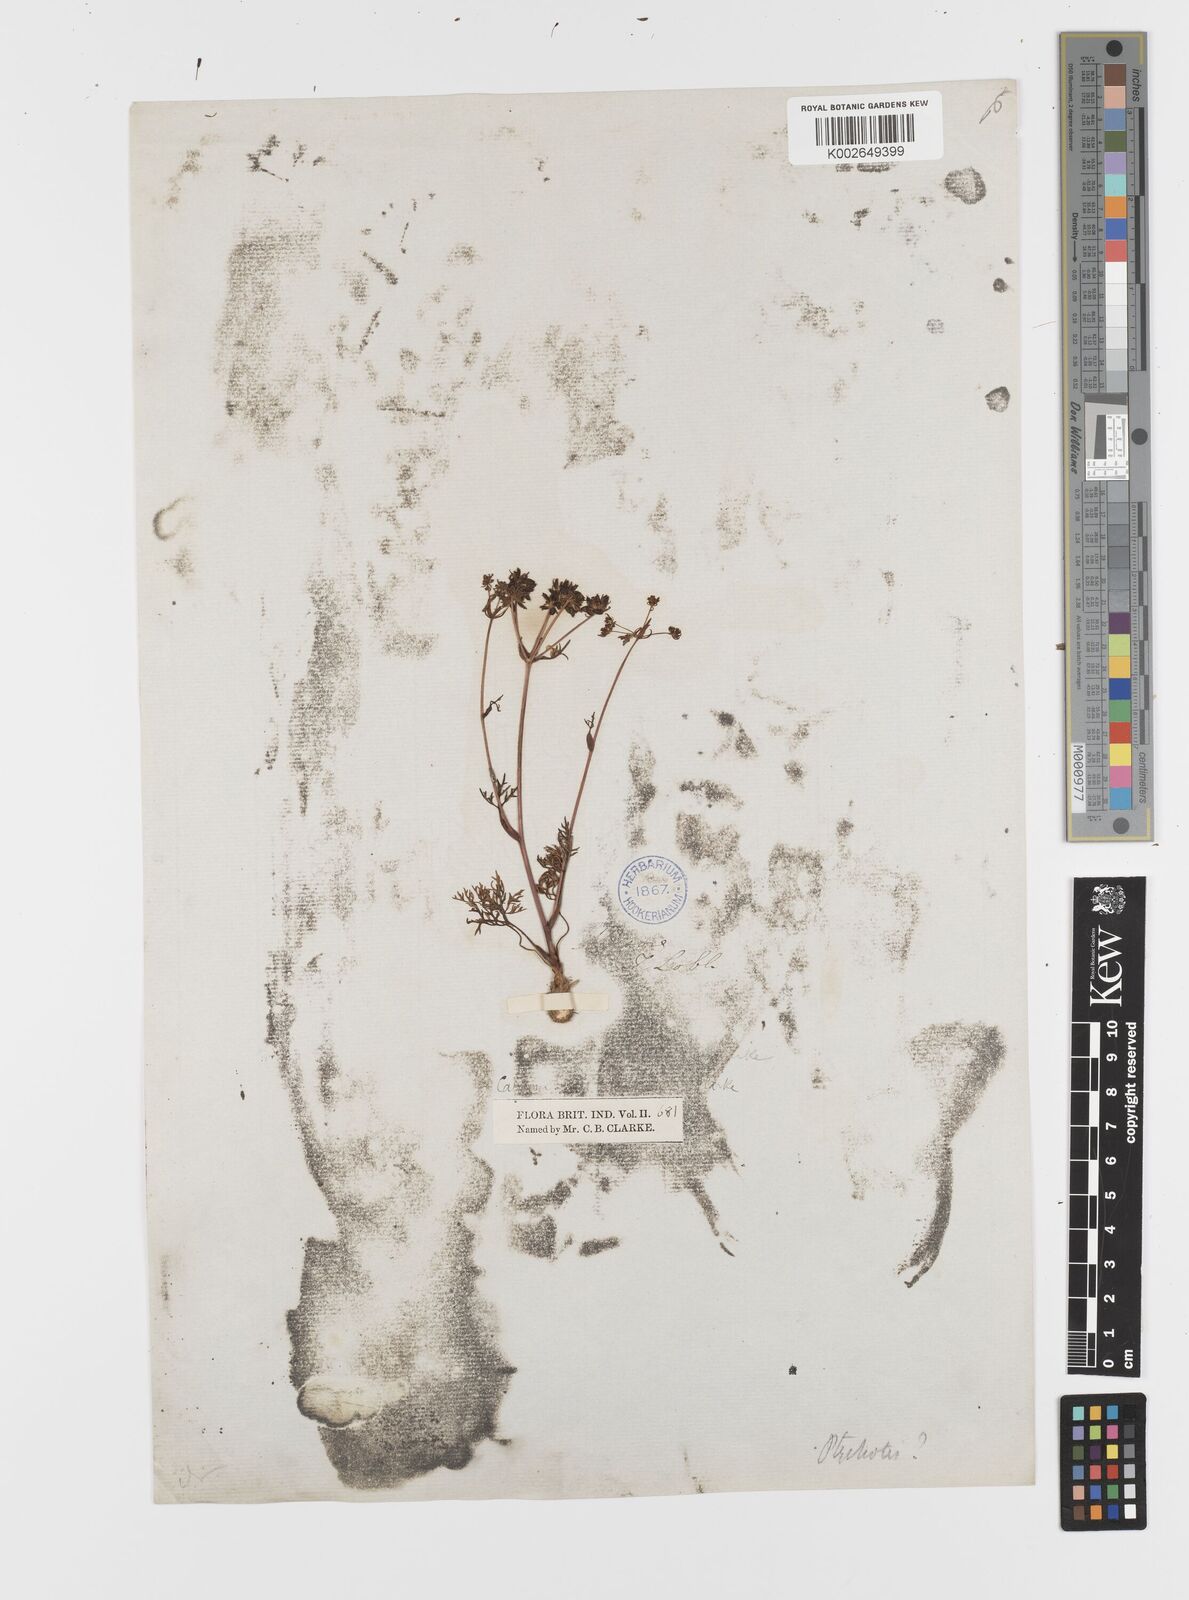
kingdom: Plantae
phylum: Tracheophyta
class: Magnoliopsida
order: Apiales
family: Apiaceae
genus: Bunium
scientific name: Bunium nothum
